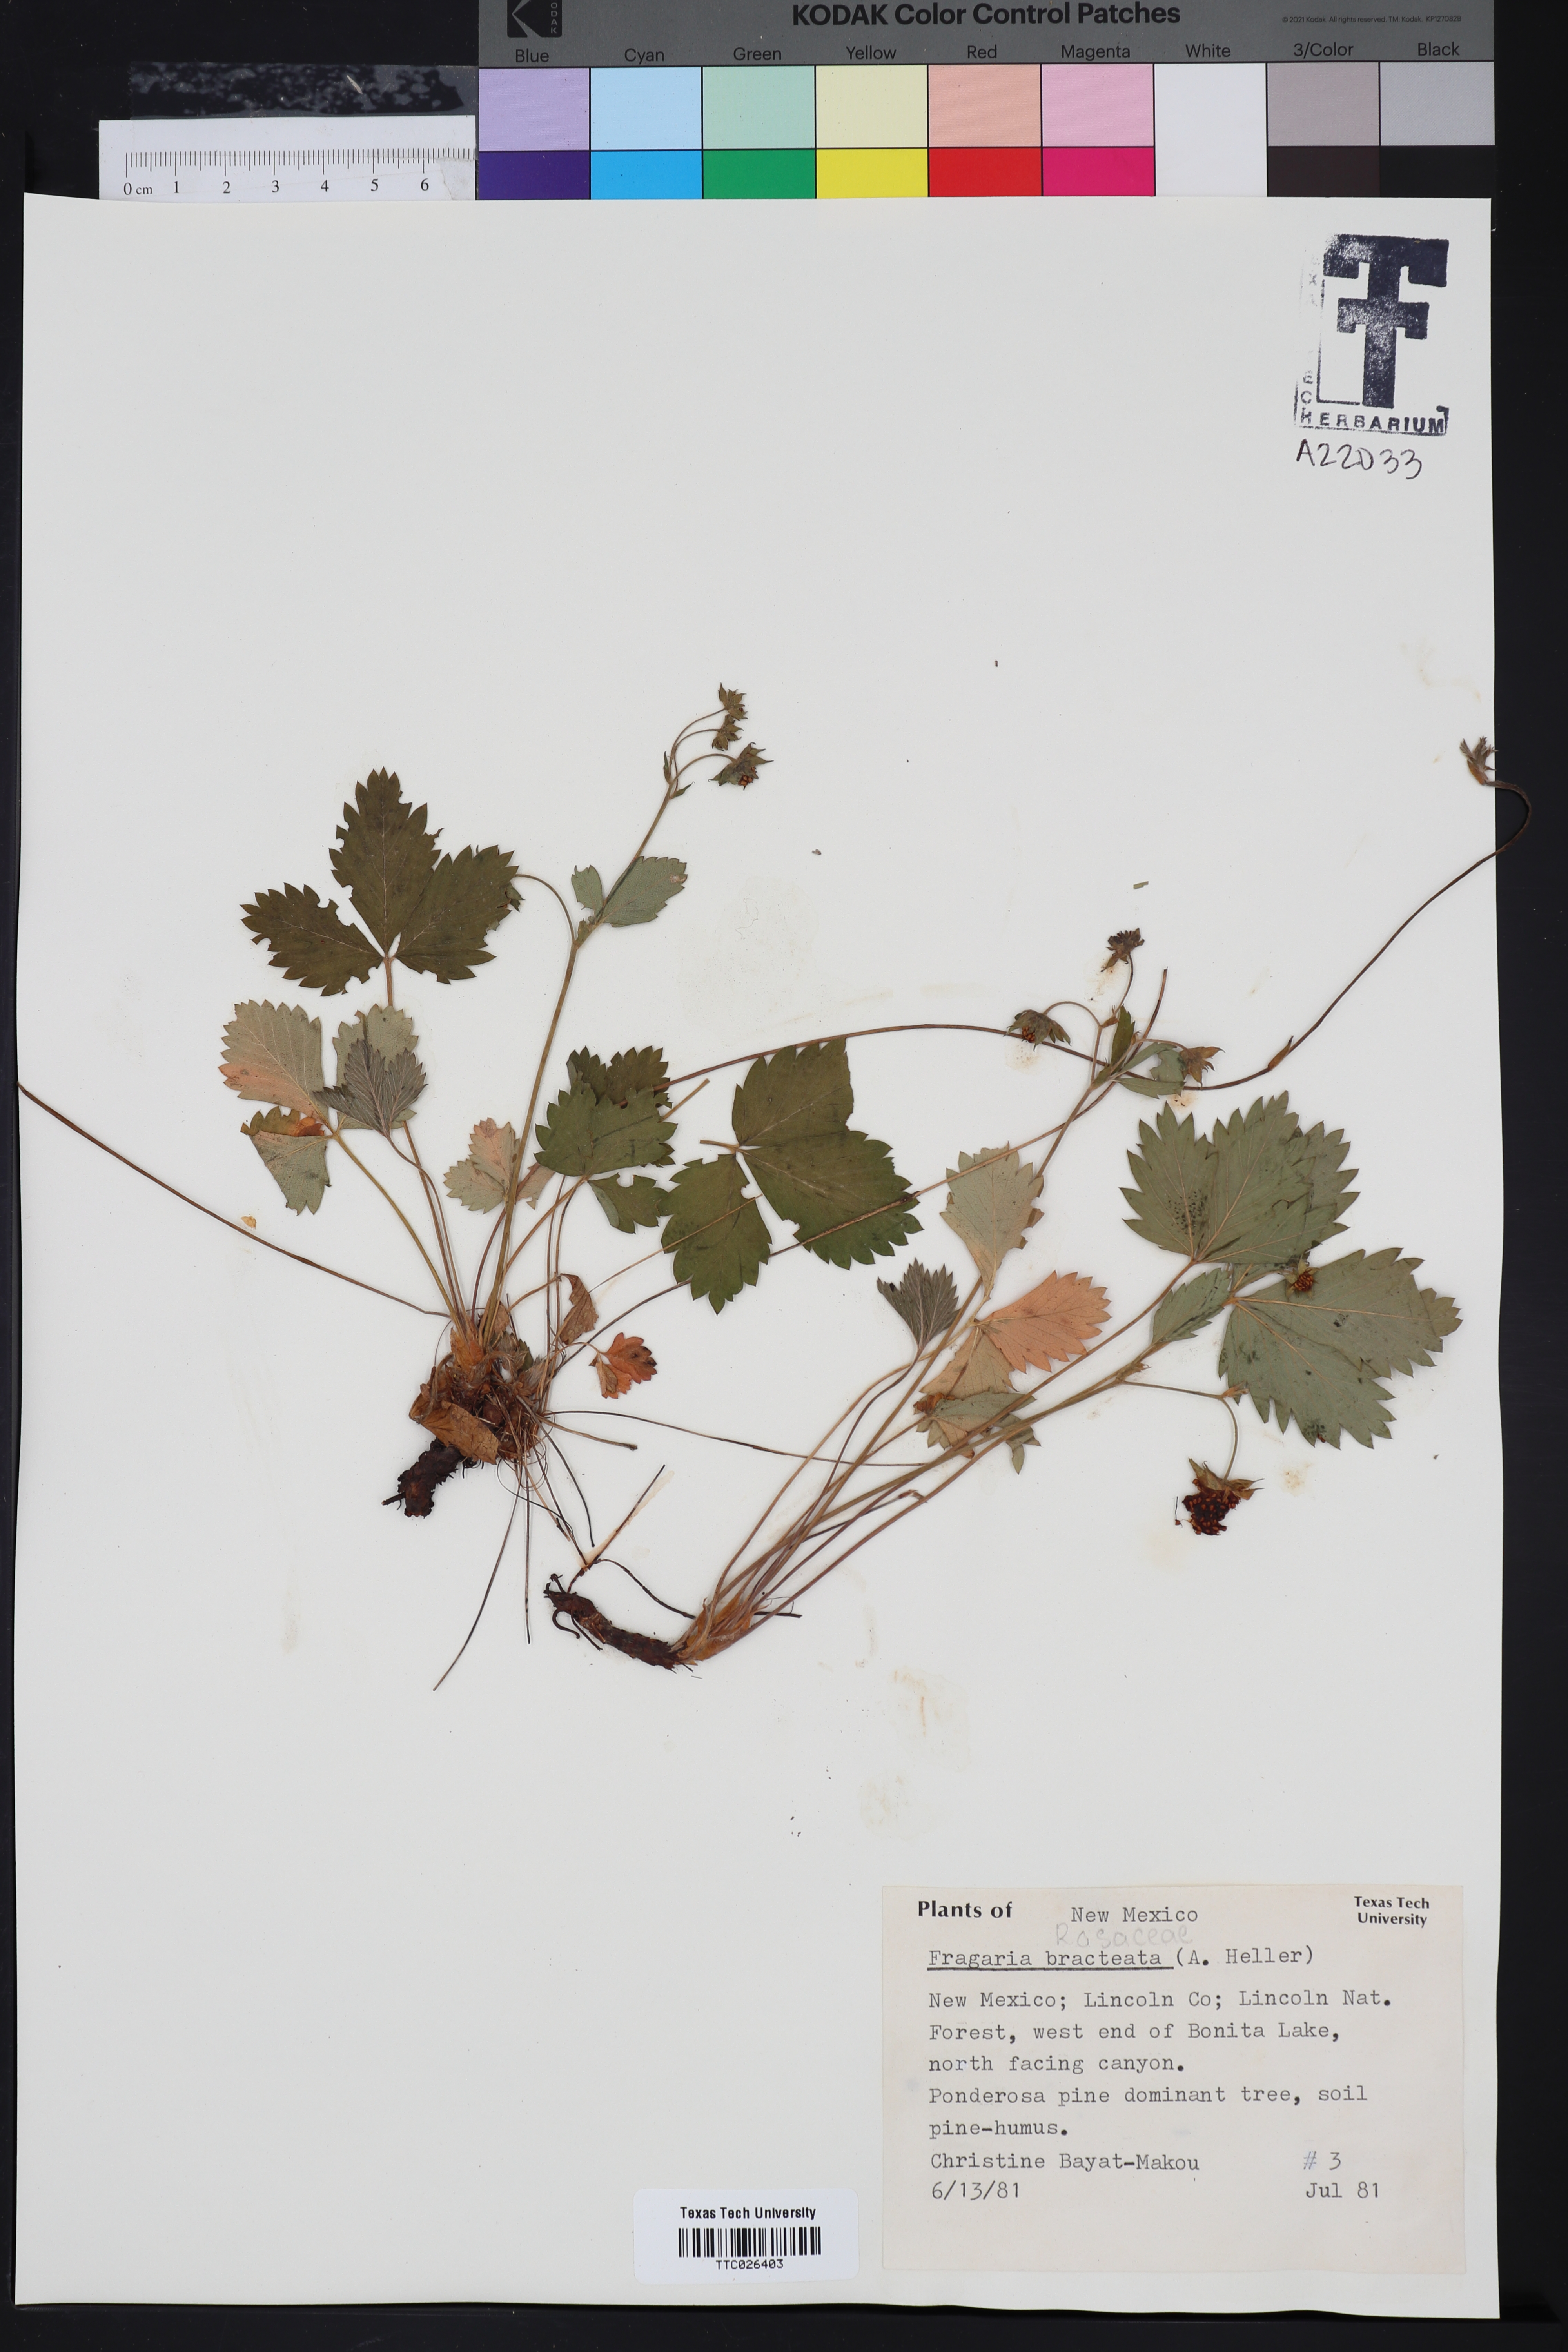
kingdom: Plantae
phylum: Tracheophyta
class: Magnoliopsida
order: Rosales
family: Rosaceae
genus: Fragaria
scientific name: Fragaria vesca
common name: Wild strawberry
